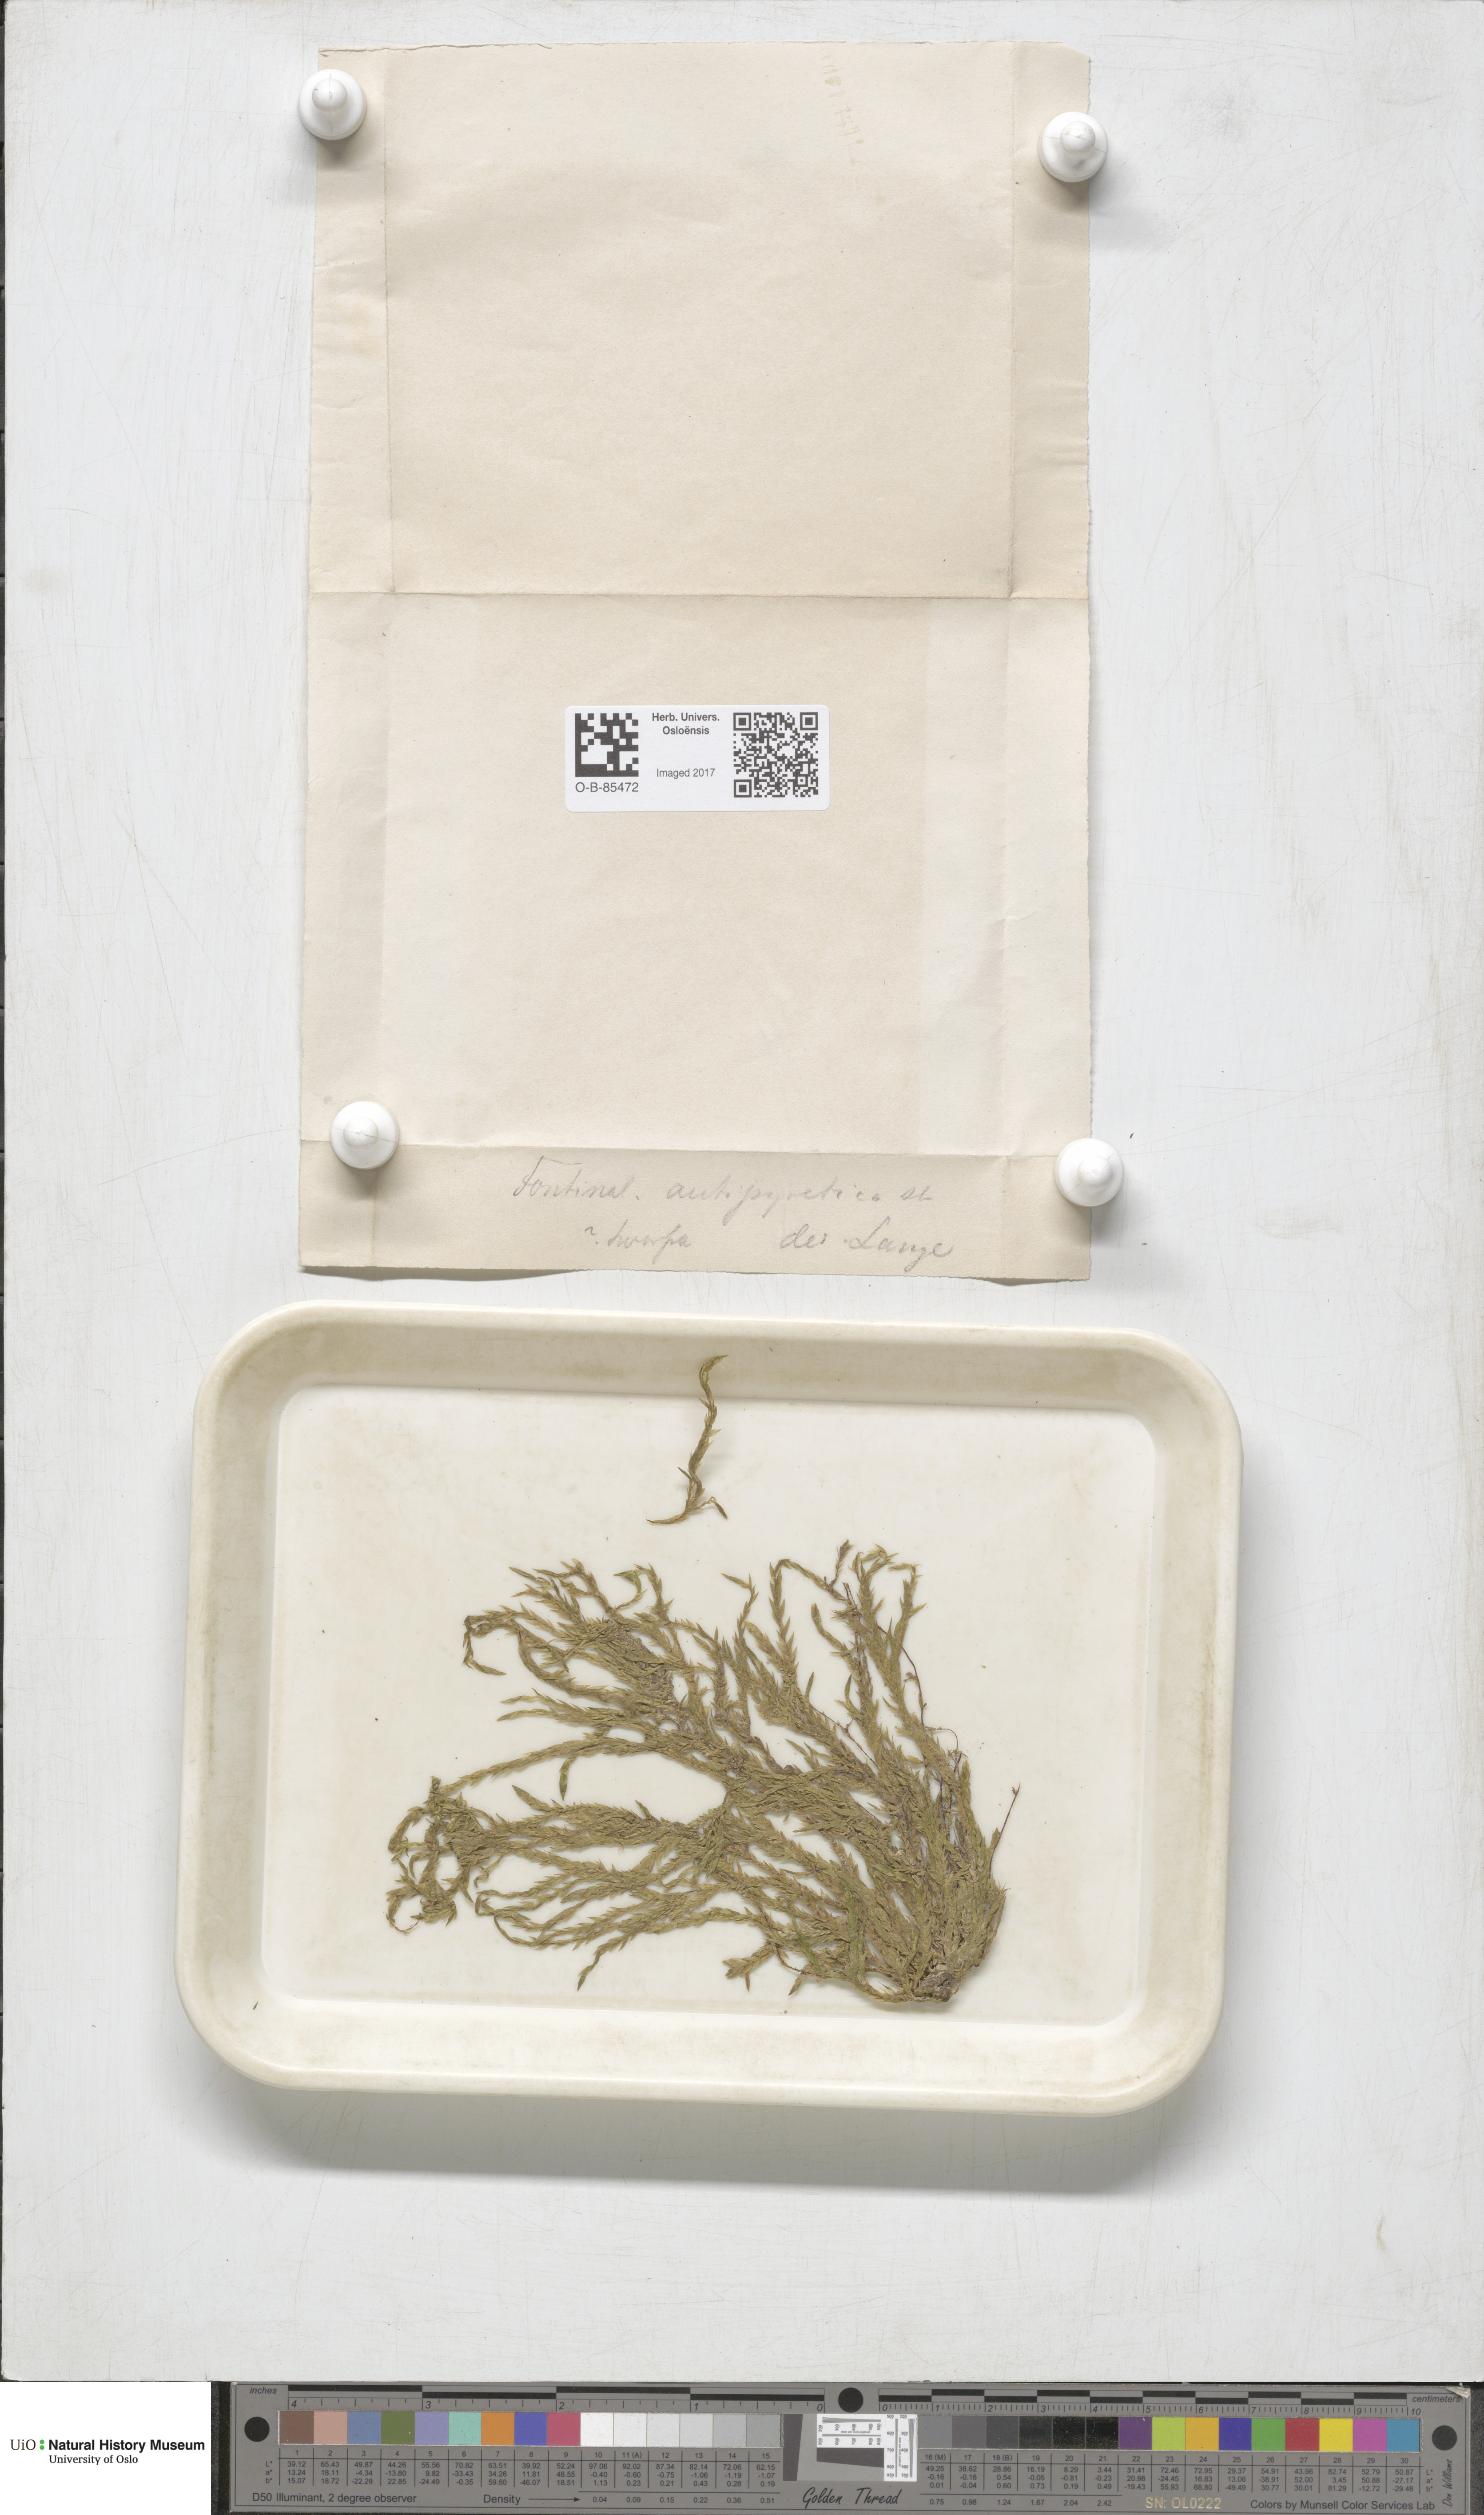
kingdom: Plantae
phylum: Bryophyta
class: Bryopsida
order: Hypnales
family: Fontinalaceae
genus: Fontinalis
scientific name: Fontinalis antipyretica
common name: Greater water-moss
